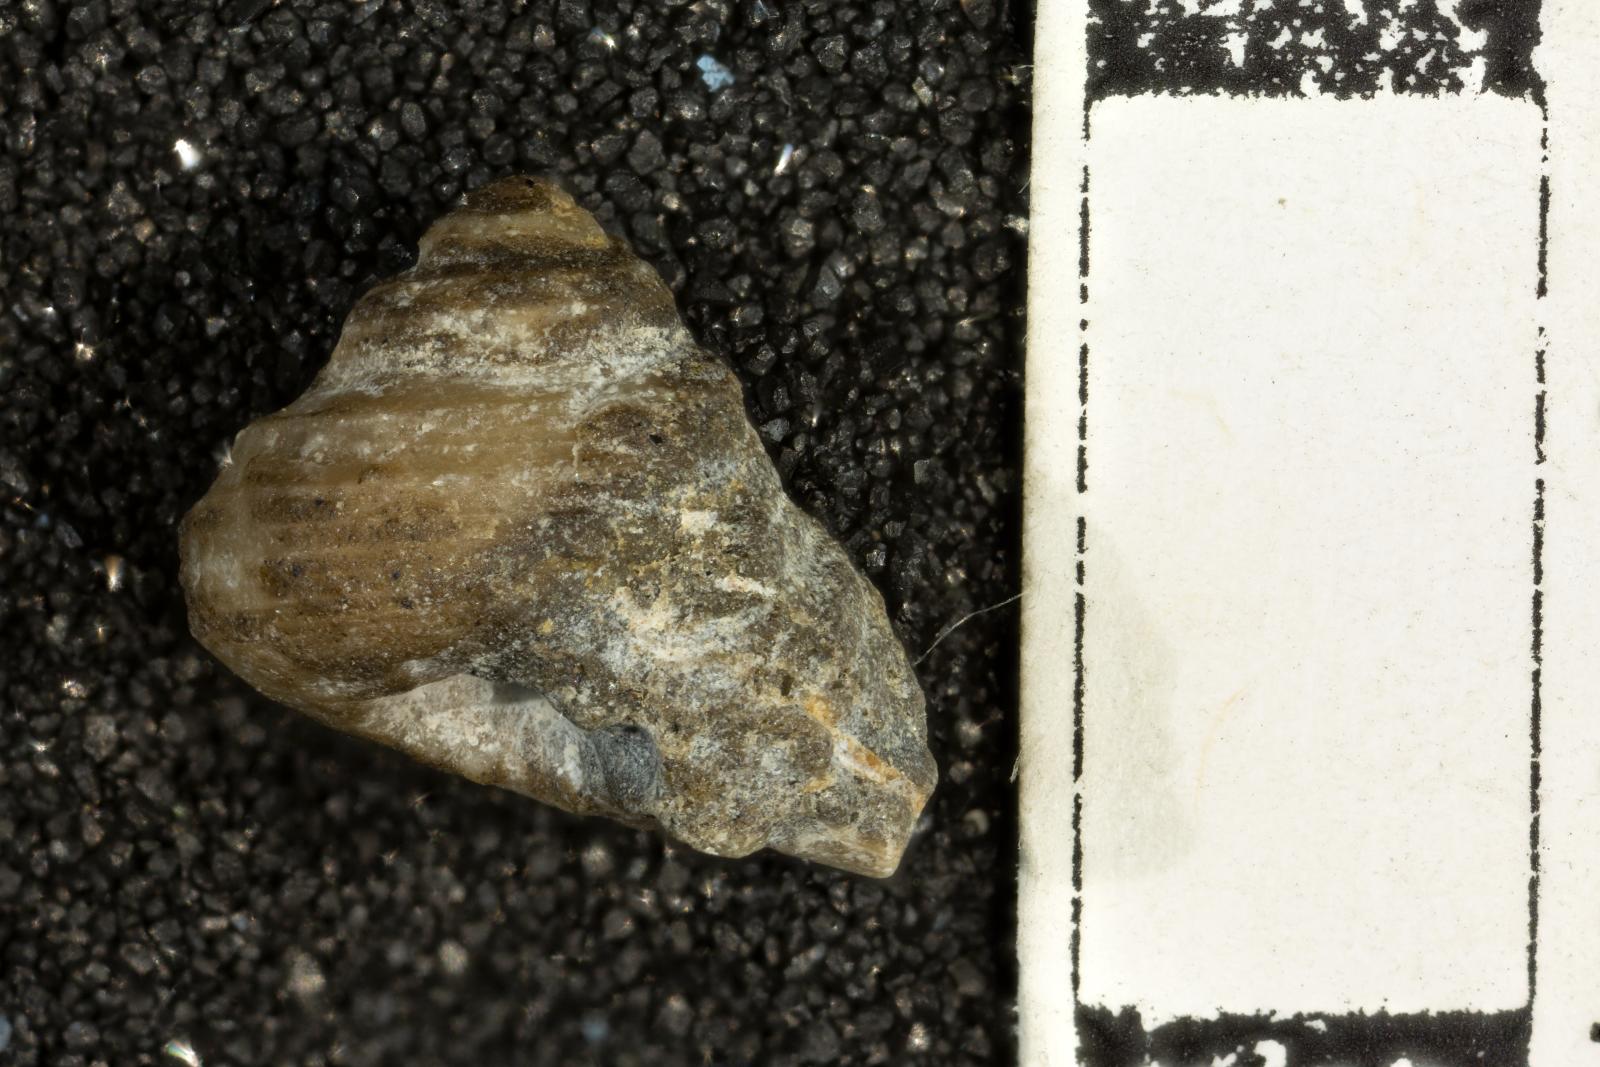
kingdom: Animalia
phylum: Mollusca
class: Gastropoda
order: Trochida
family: Turbinidae
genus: Igonoia
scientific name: Igonoia vacca
